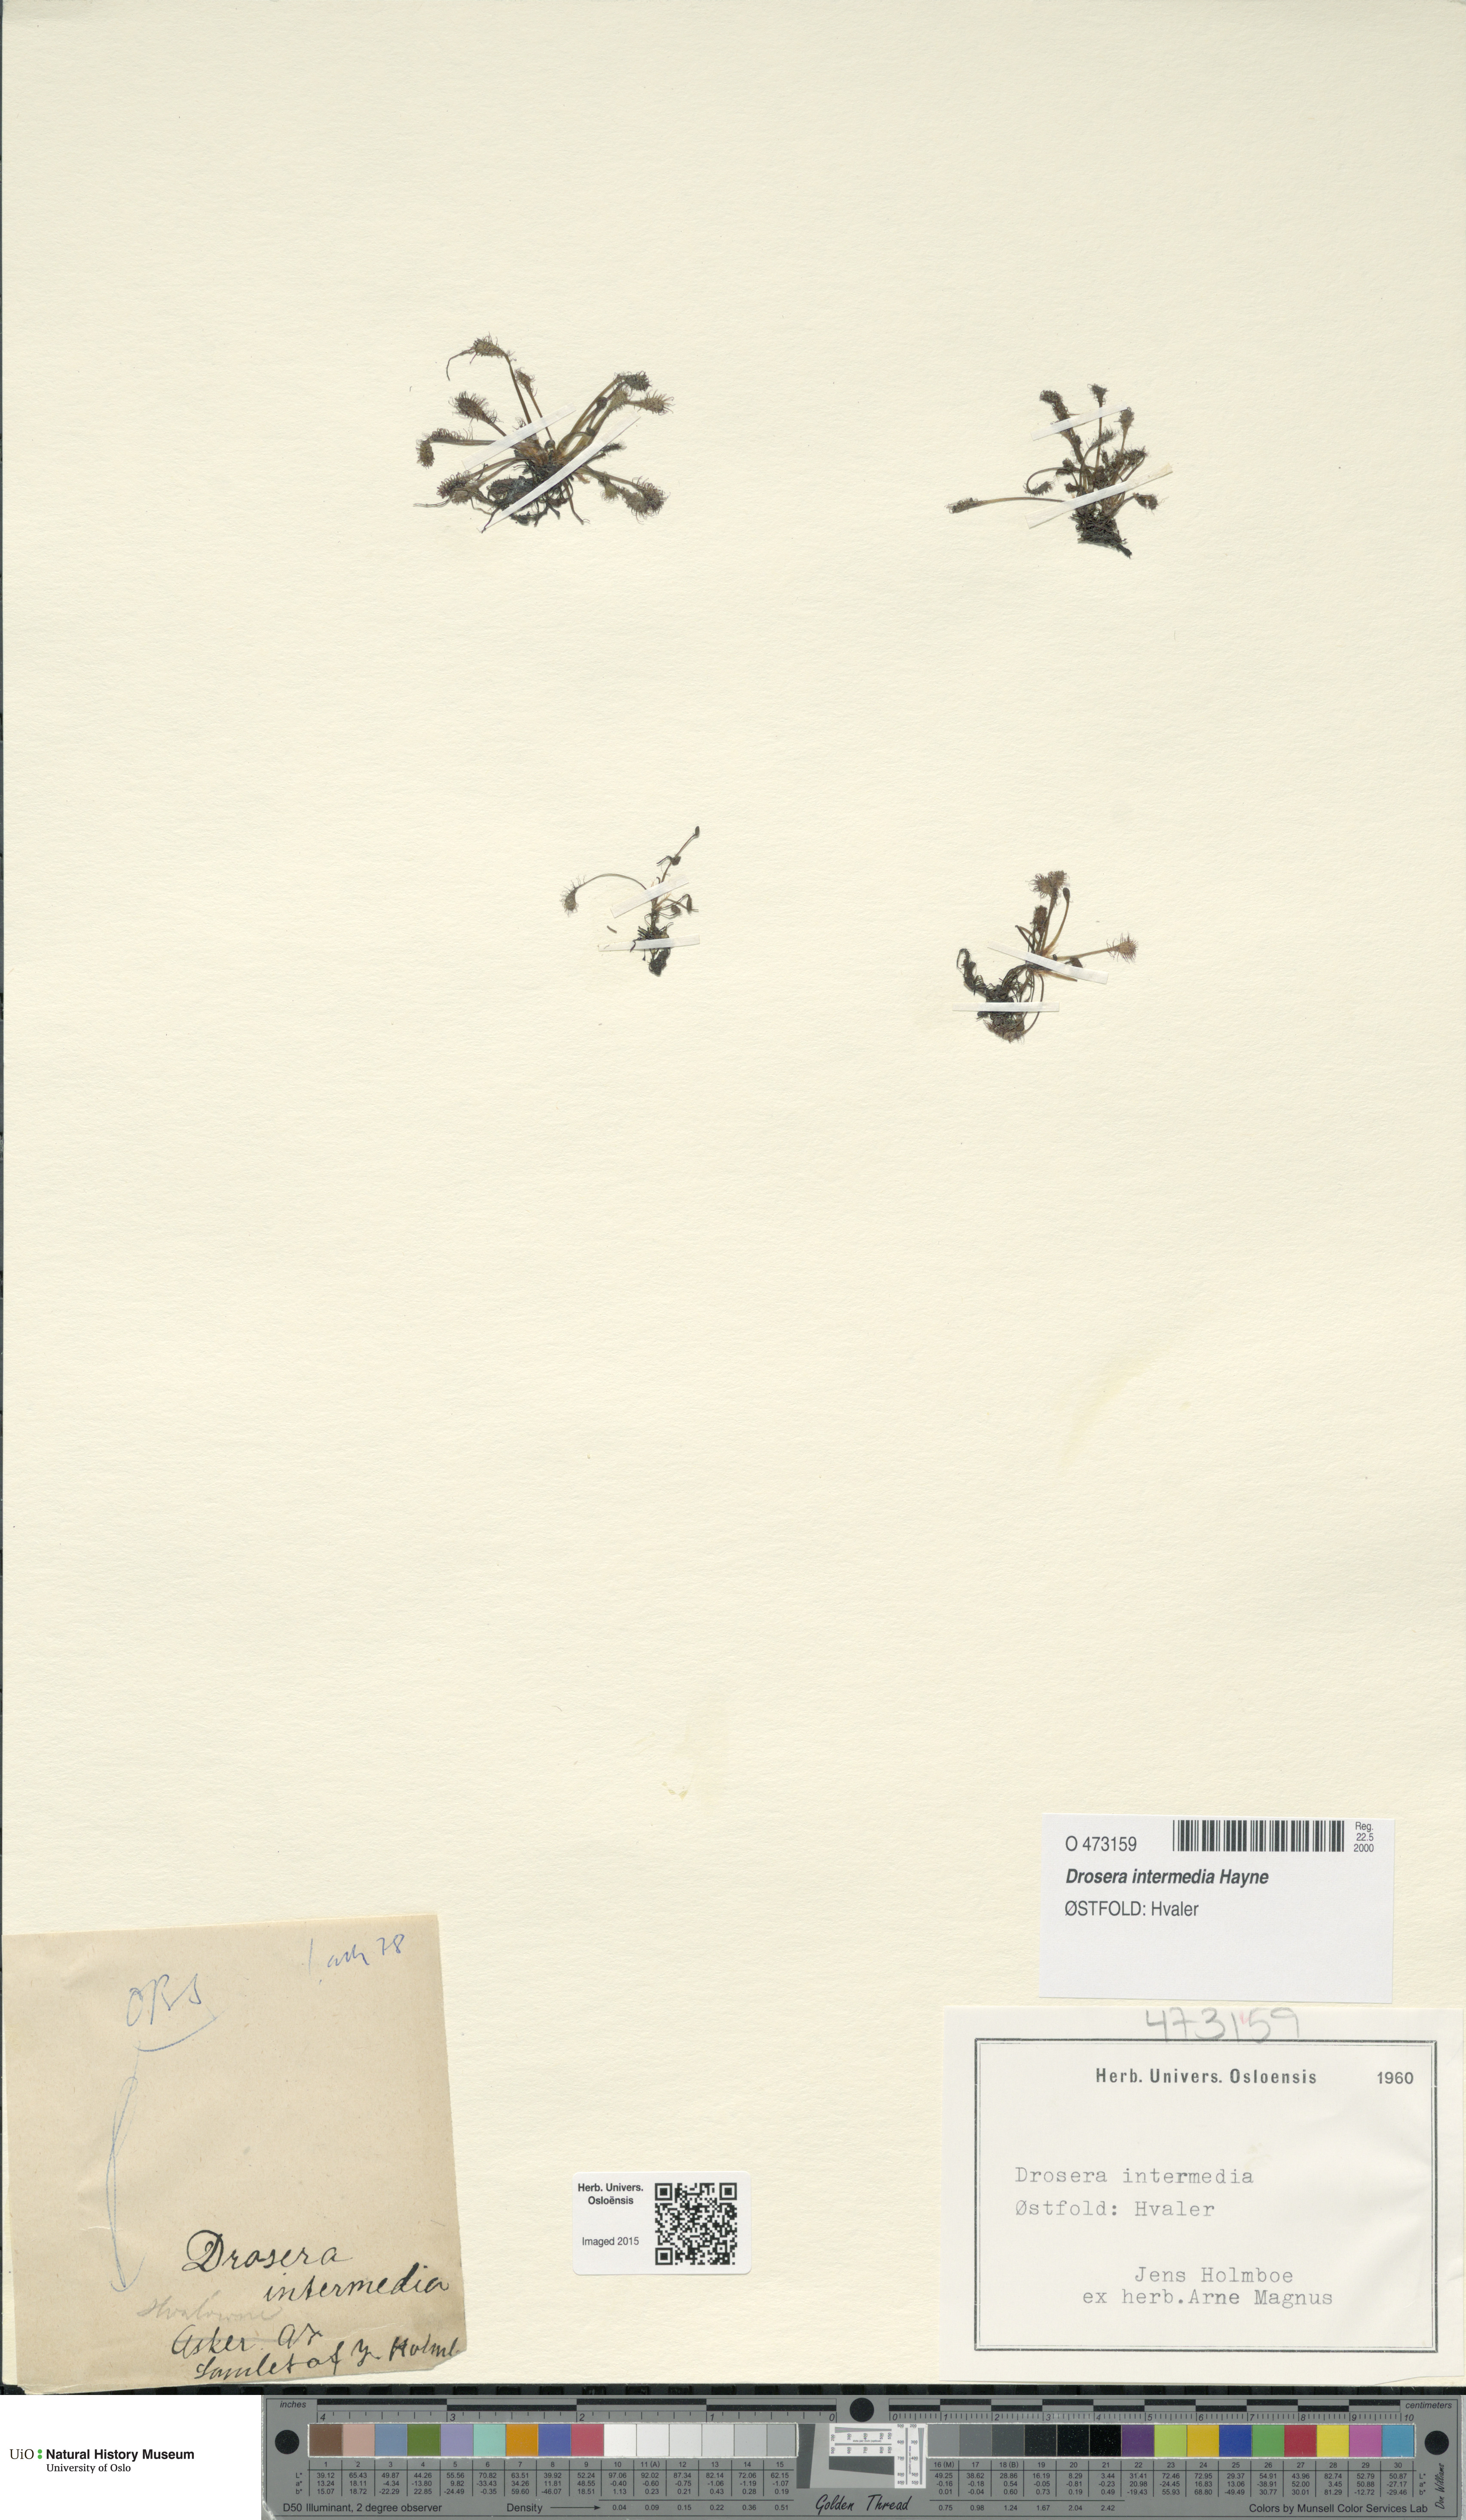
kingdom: Plantae
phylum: Tracheophyta
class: Magnoliopsida
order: Caryophyllales
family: Droseraceae
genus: Drosera
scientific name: Drosera intermedia
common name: Oblong-leaved sundew
